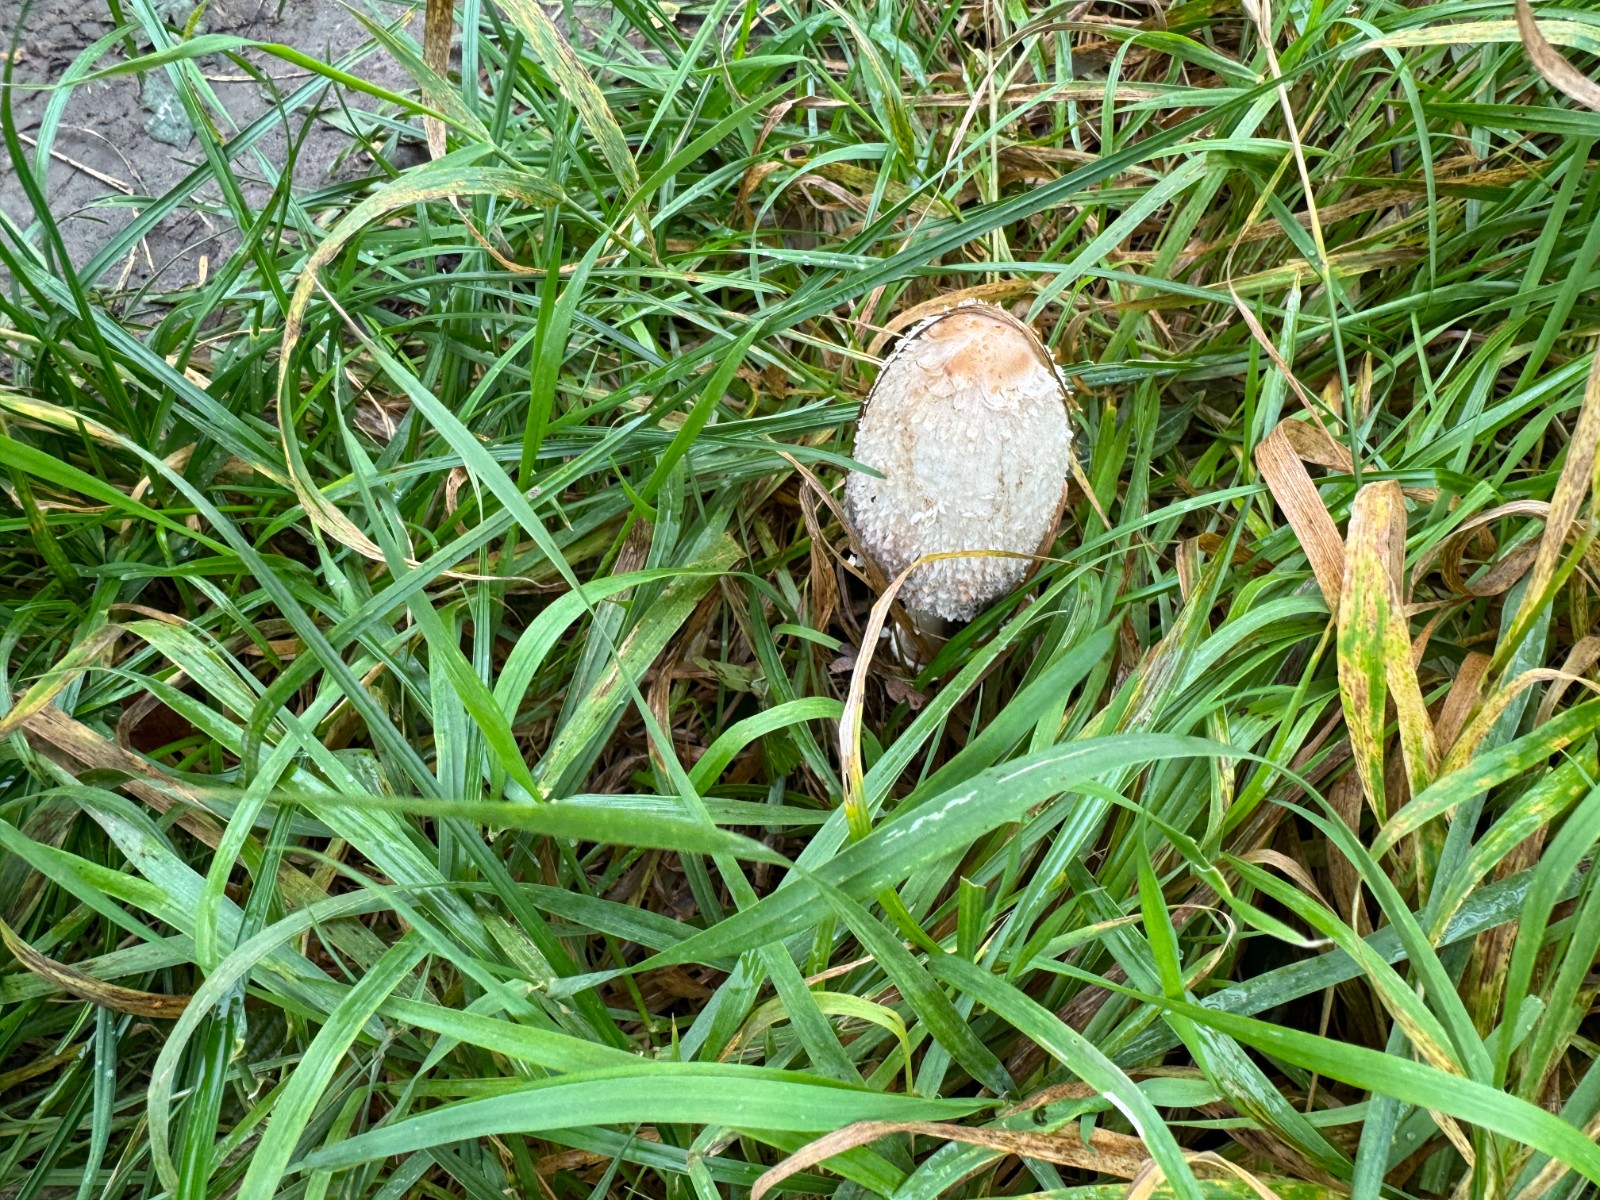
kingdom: Fungi
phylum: Basidiomycota
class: Agaricomycetes
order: Agaricales
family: Agaricaceae
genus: Coprinus
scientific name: Coprinus comatus
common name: stor parykhat
